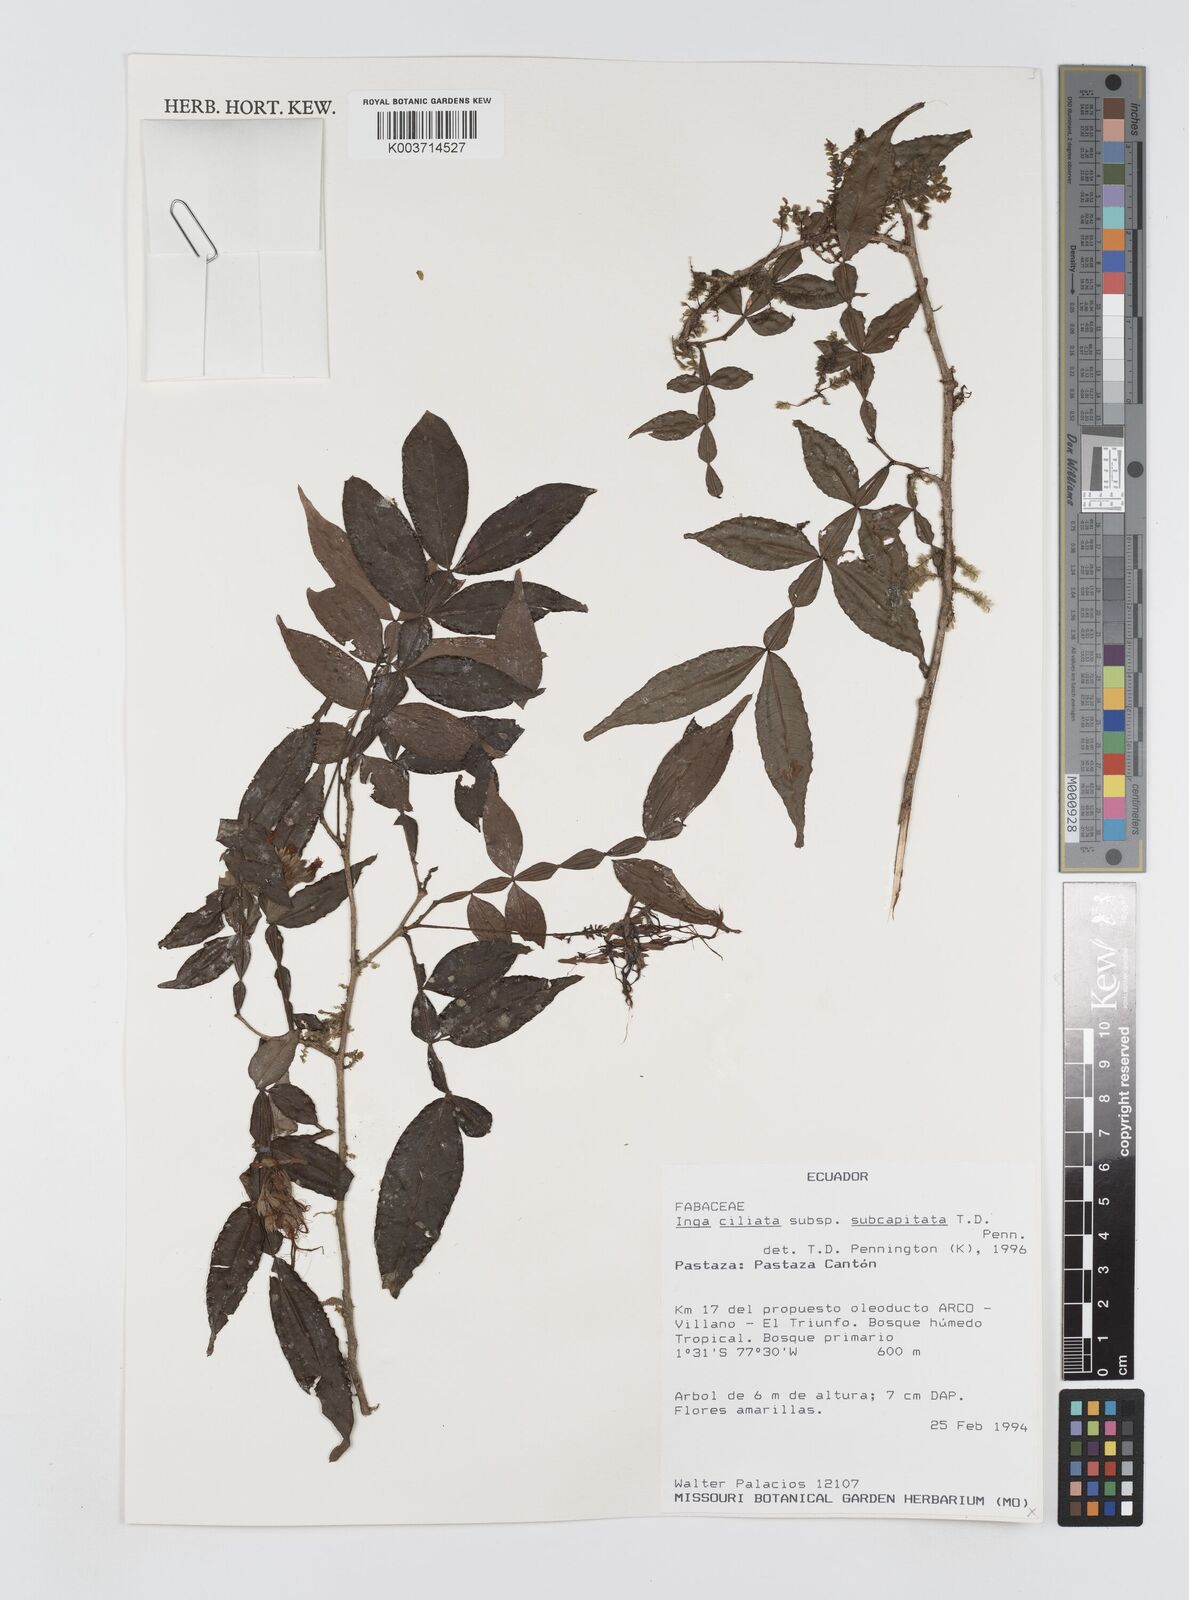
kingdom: Plantae
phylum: Tracheophyta
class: Magnoliopsida
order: Fabales
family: Fabaceae
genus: Inga
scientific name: Inga ciliata
